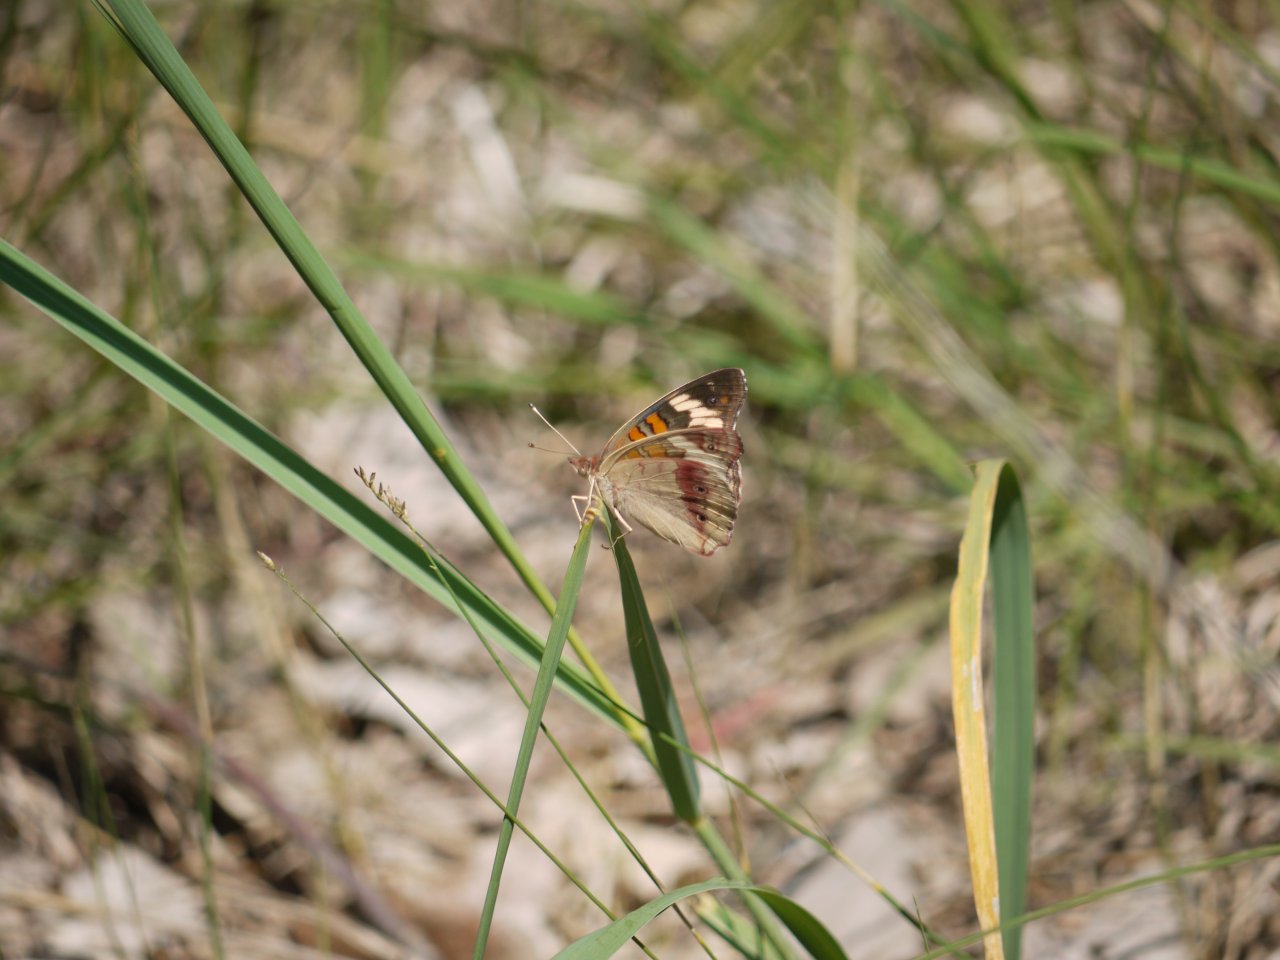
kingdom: Animalia
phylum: Arthropoda
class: Insecta
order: Lepidoptera
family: Nymphalidae
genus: Junonia
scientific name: Junonia coenia
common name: Common Buckeye
